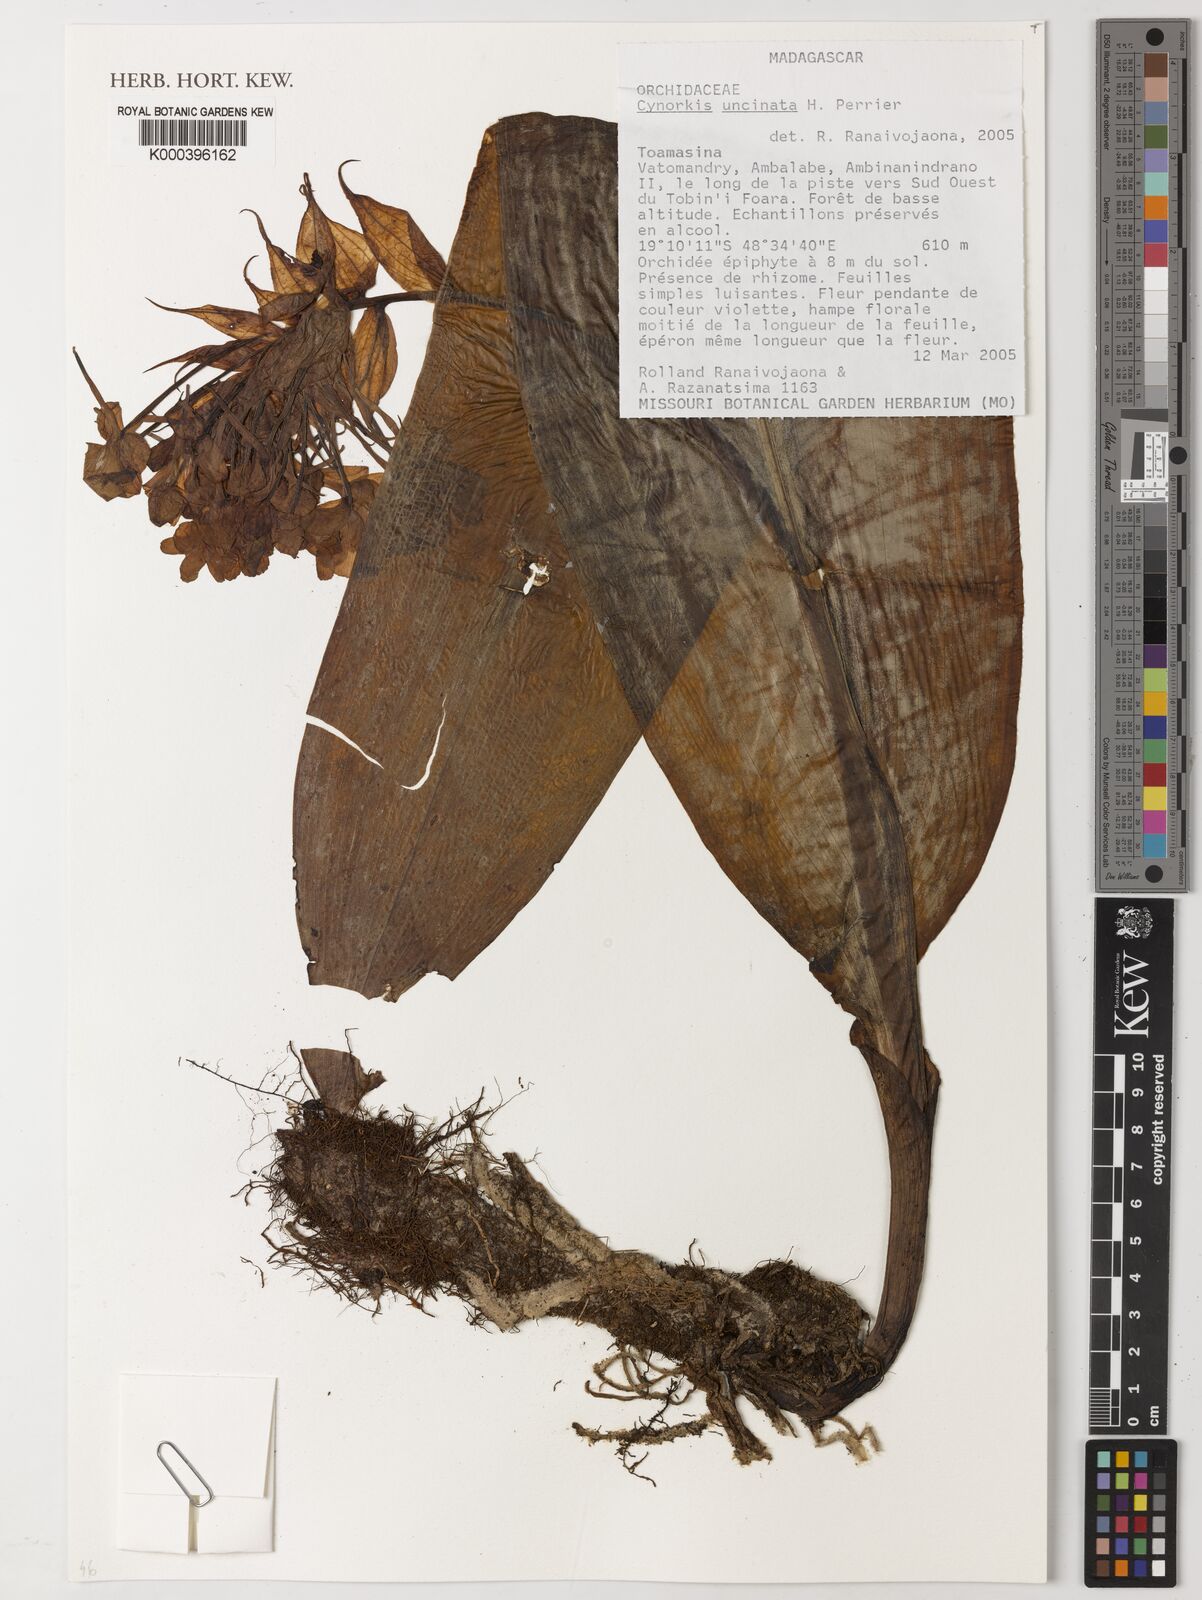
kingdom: Plantae
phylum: Tracheophyta
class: Liliopsida
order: Asparagales
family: Orchidaceae
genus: Cynorkis
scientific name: Cynorkis calanthoides
